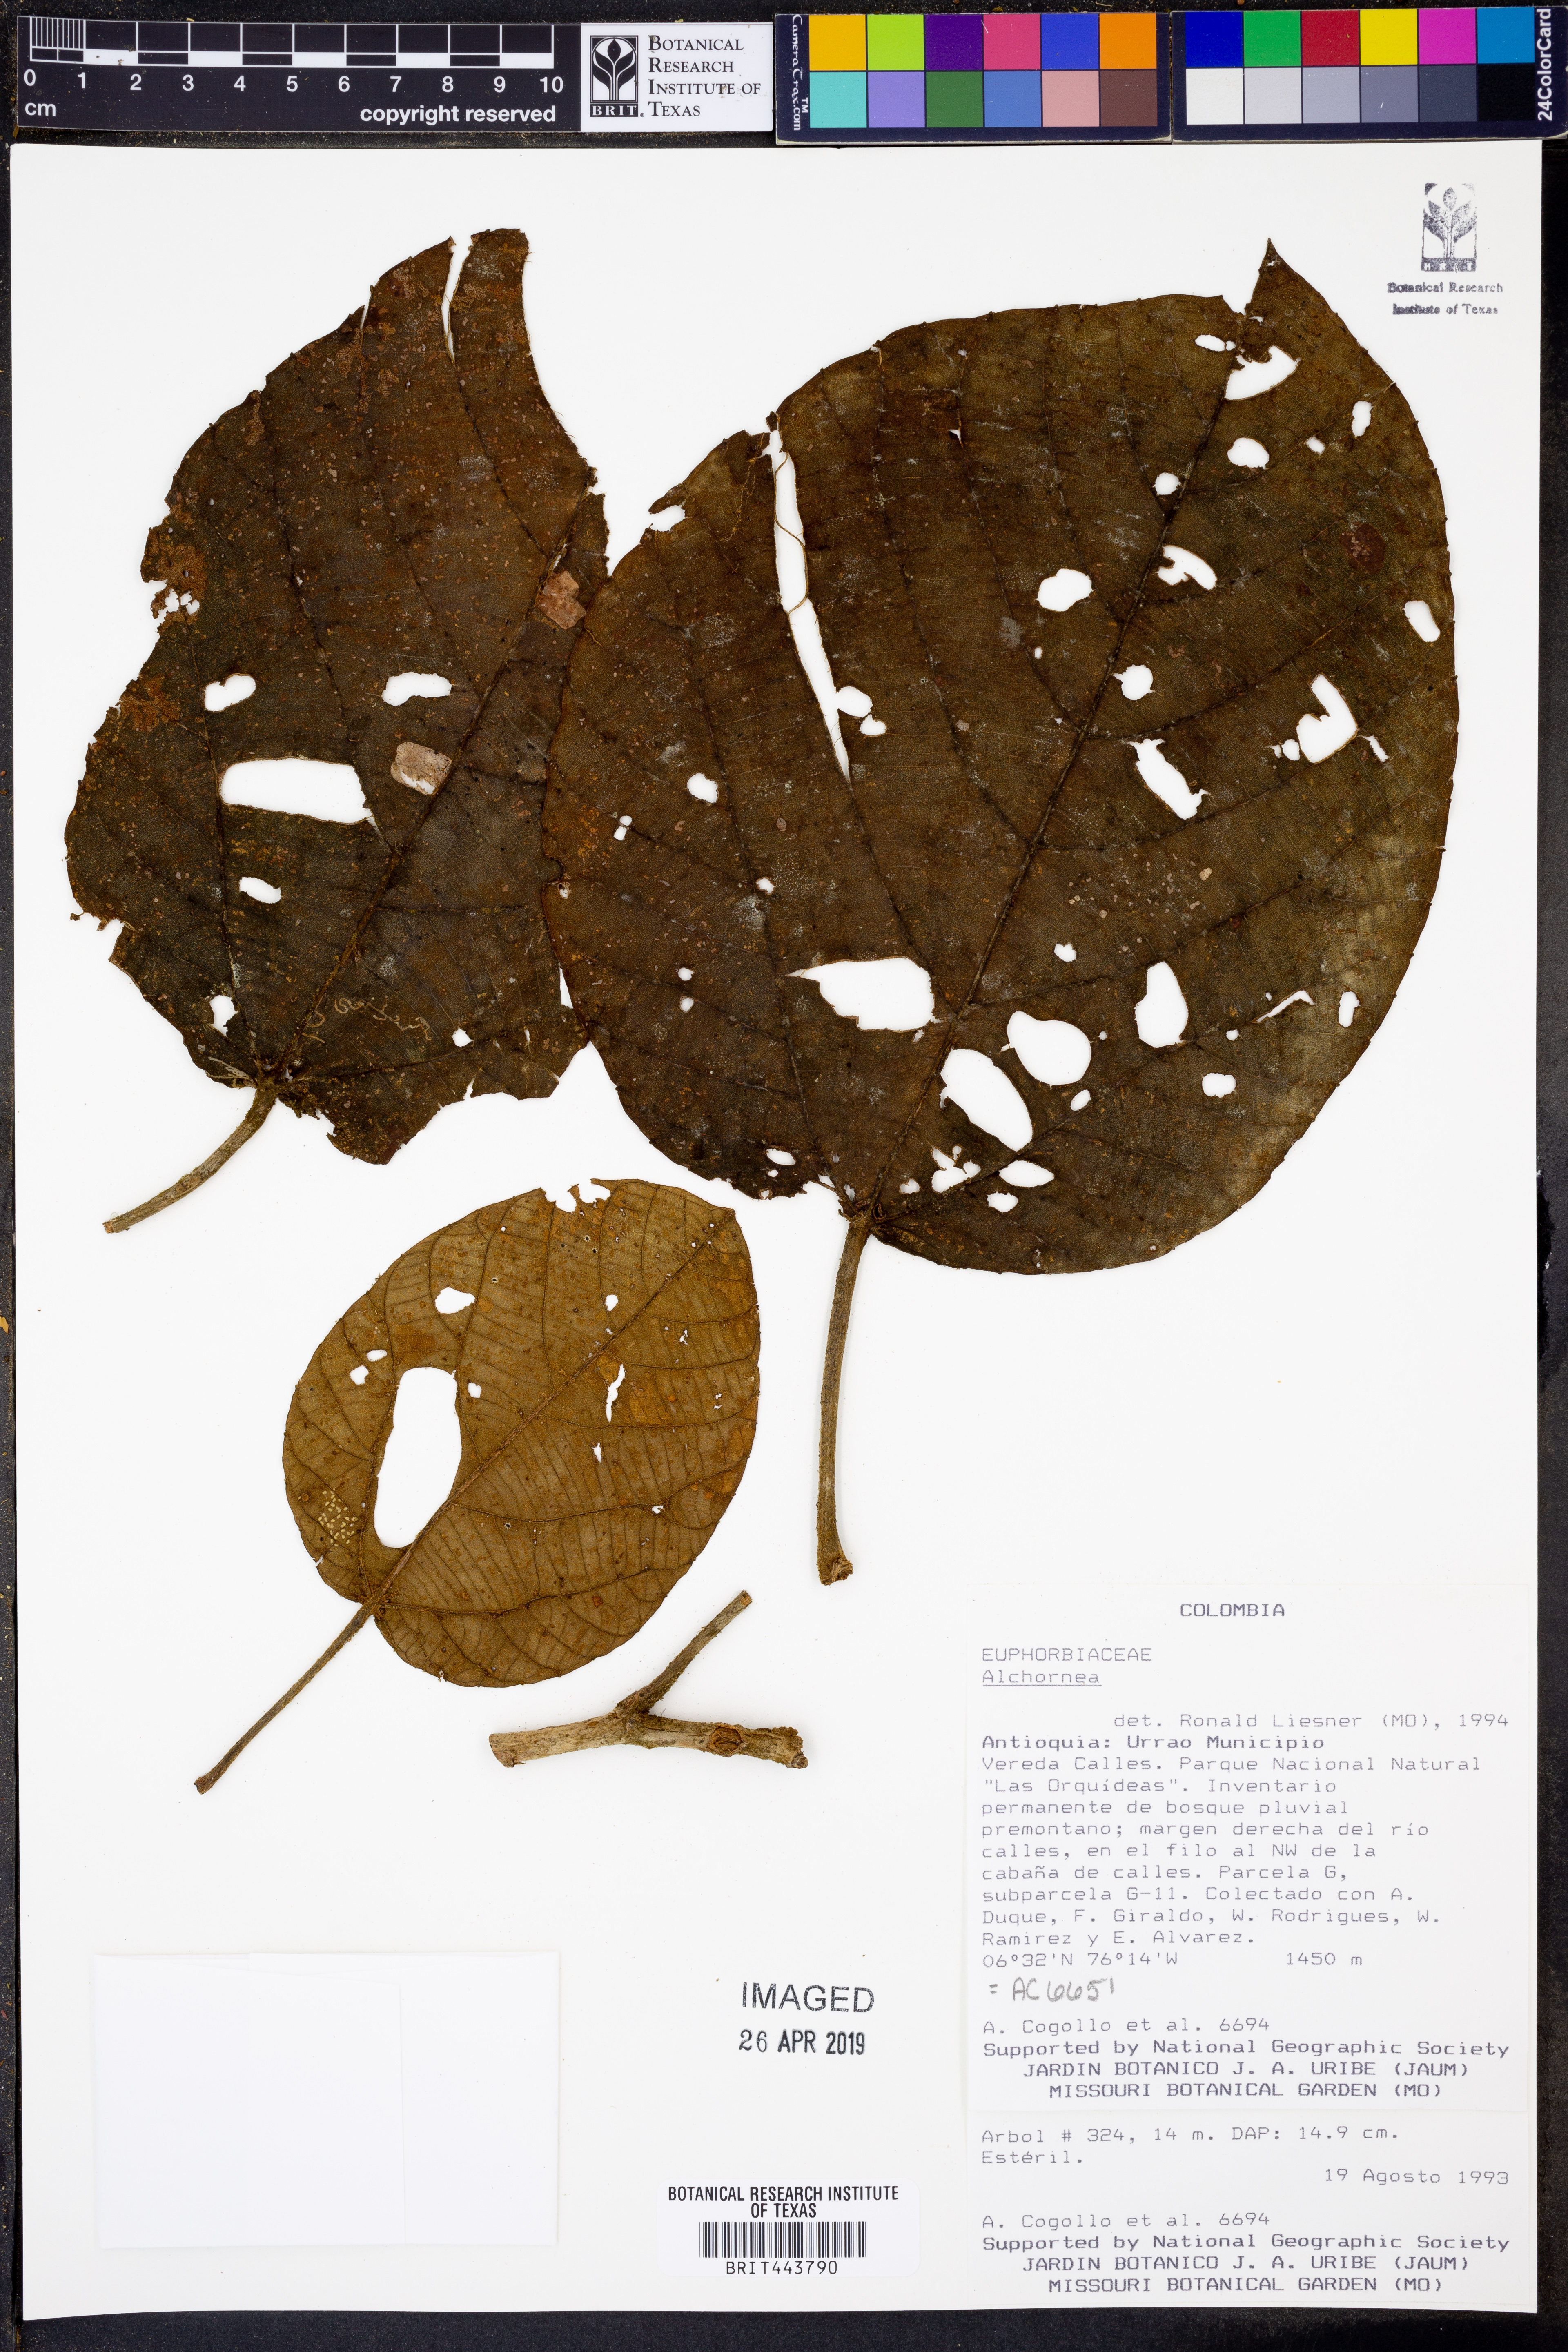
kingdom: Plantae
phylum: Tracheophyta
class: Magnoliopsida
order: Malpighiales
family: Euphorbiaceae
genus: Alchornea
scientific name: Alchornea
